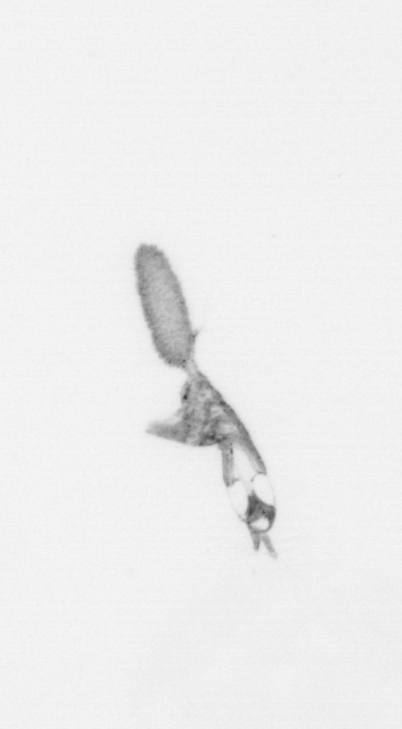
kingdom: Animalia
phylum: Arthropoda
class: Copepoda
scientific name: Copepoda
